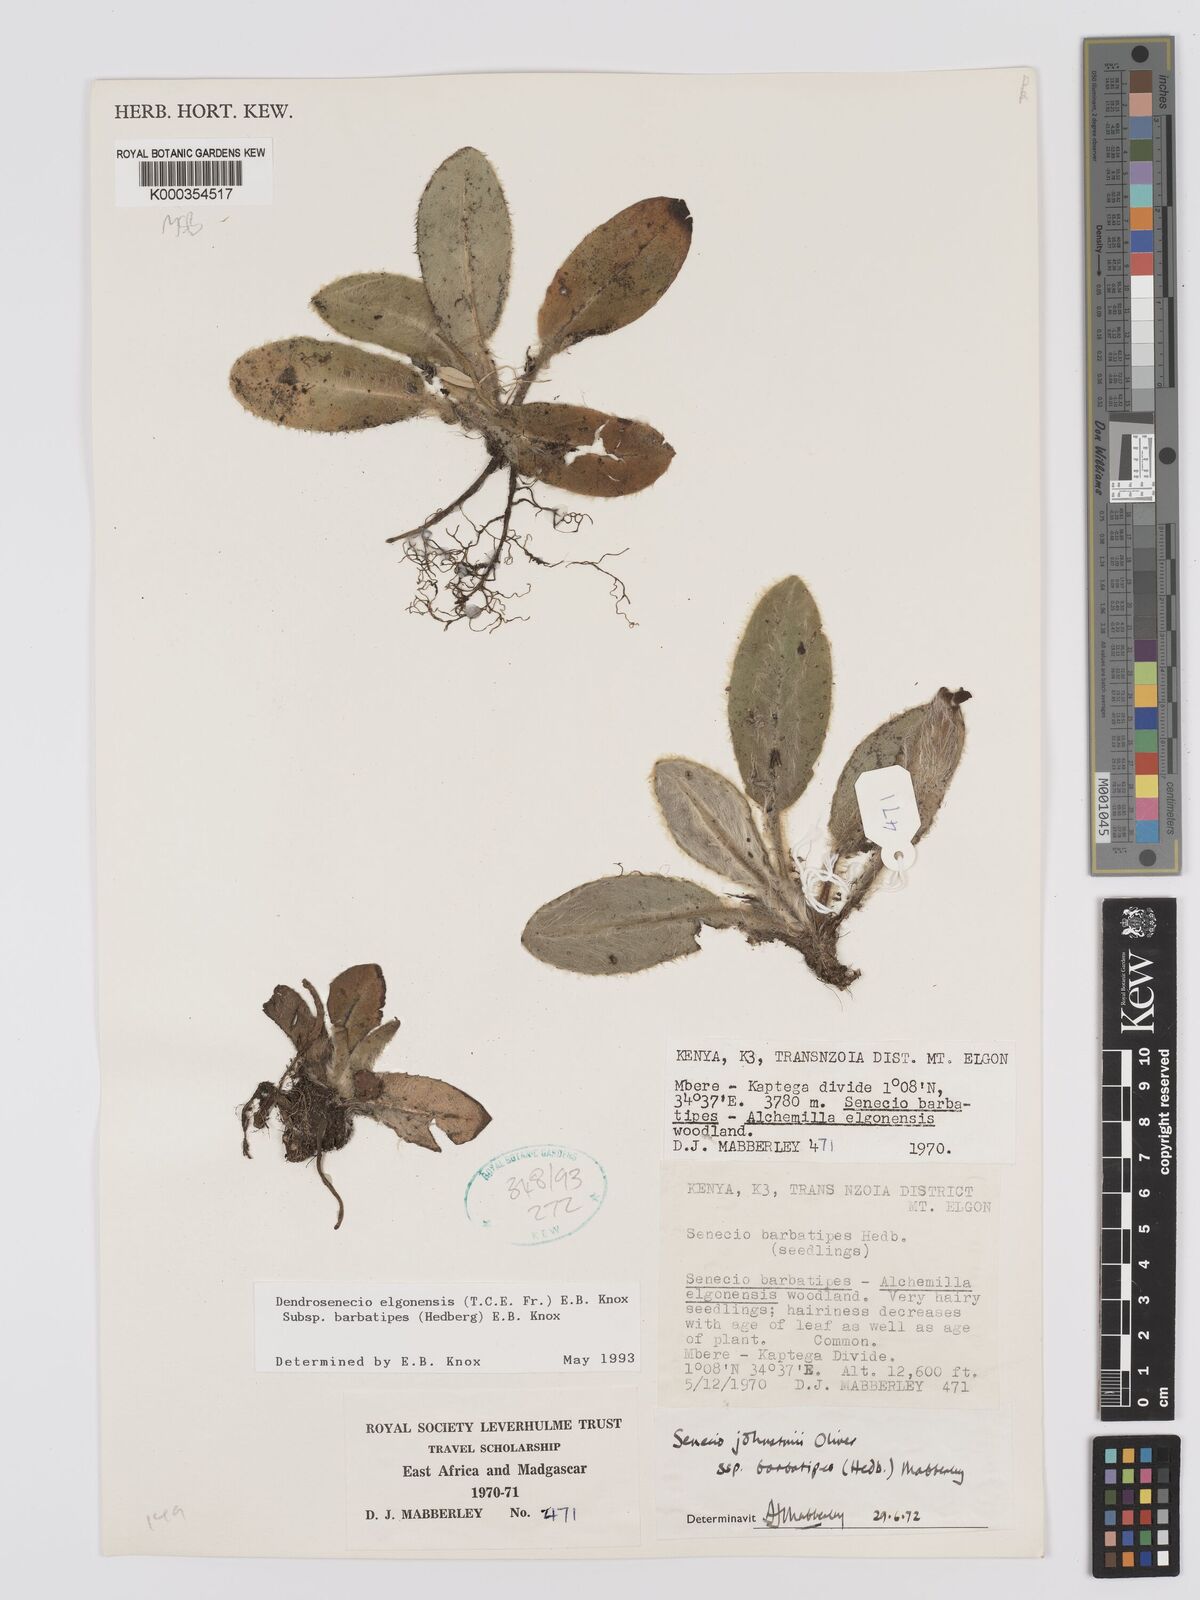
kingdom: Plantae
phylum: Tracheophyta
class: Magnoliopsida
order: Asterales
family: Asteraceae
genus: Dendrosenecio
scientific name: Dendrosenecio elgonensis
